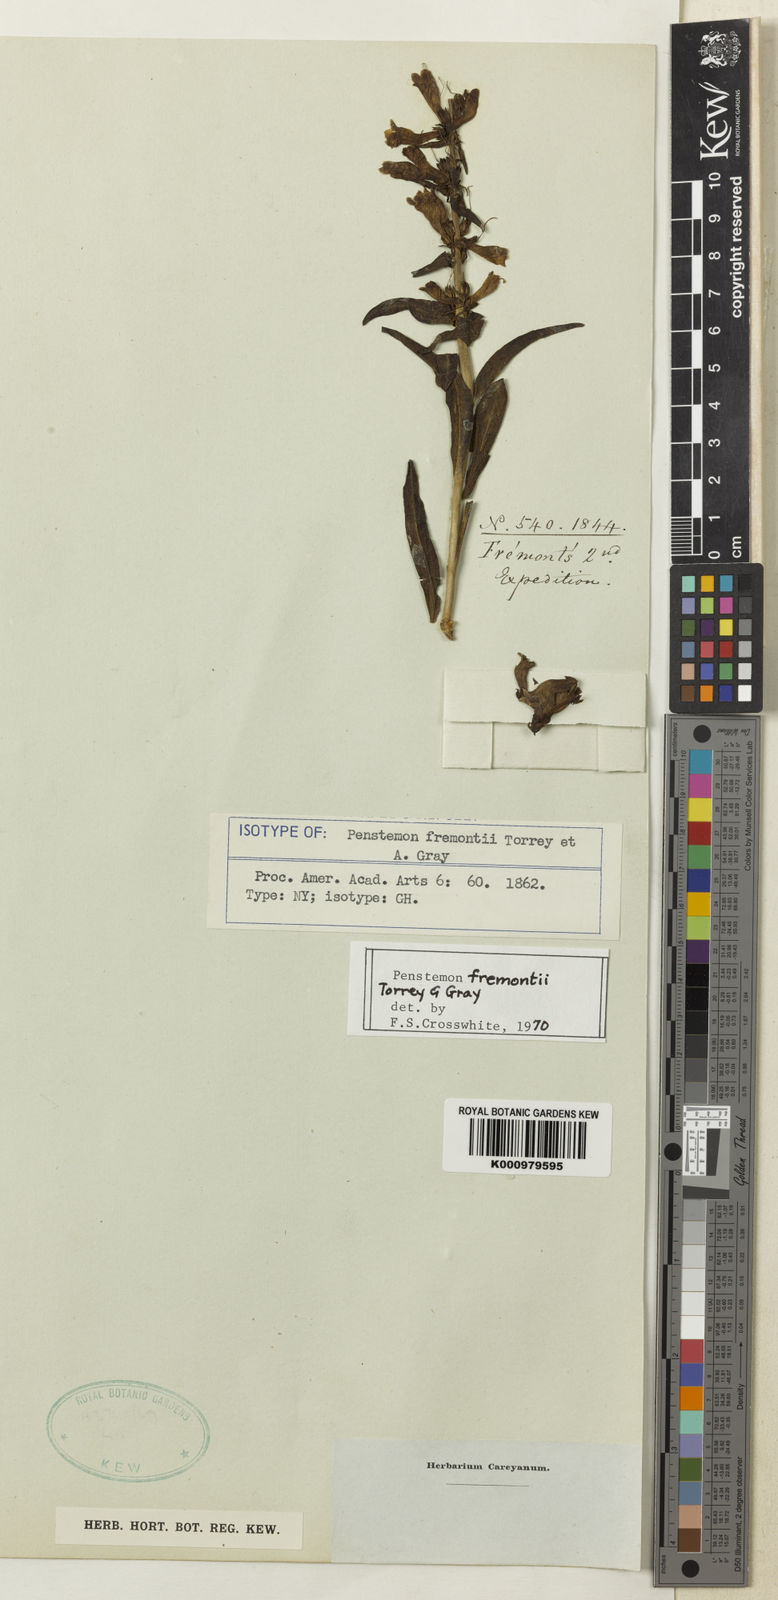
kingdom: Plantae
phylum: Tracheophyta
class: Magnoliopsida
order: Lamiales
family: Plantaginaceae
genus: Penstemon
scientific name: Penstemon fremontii
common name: Fremont's penstemon
